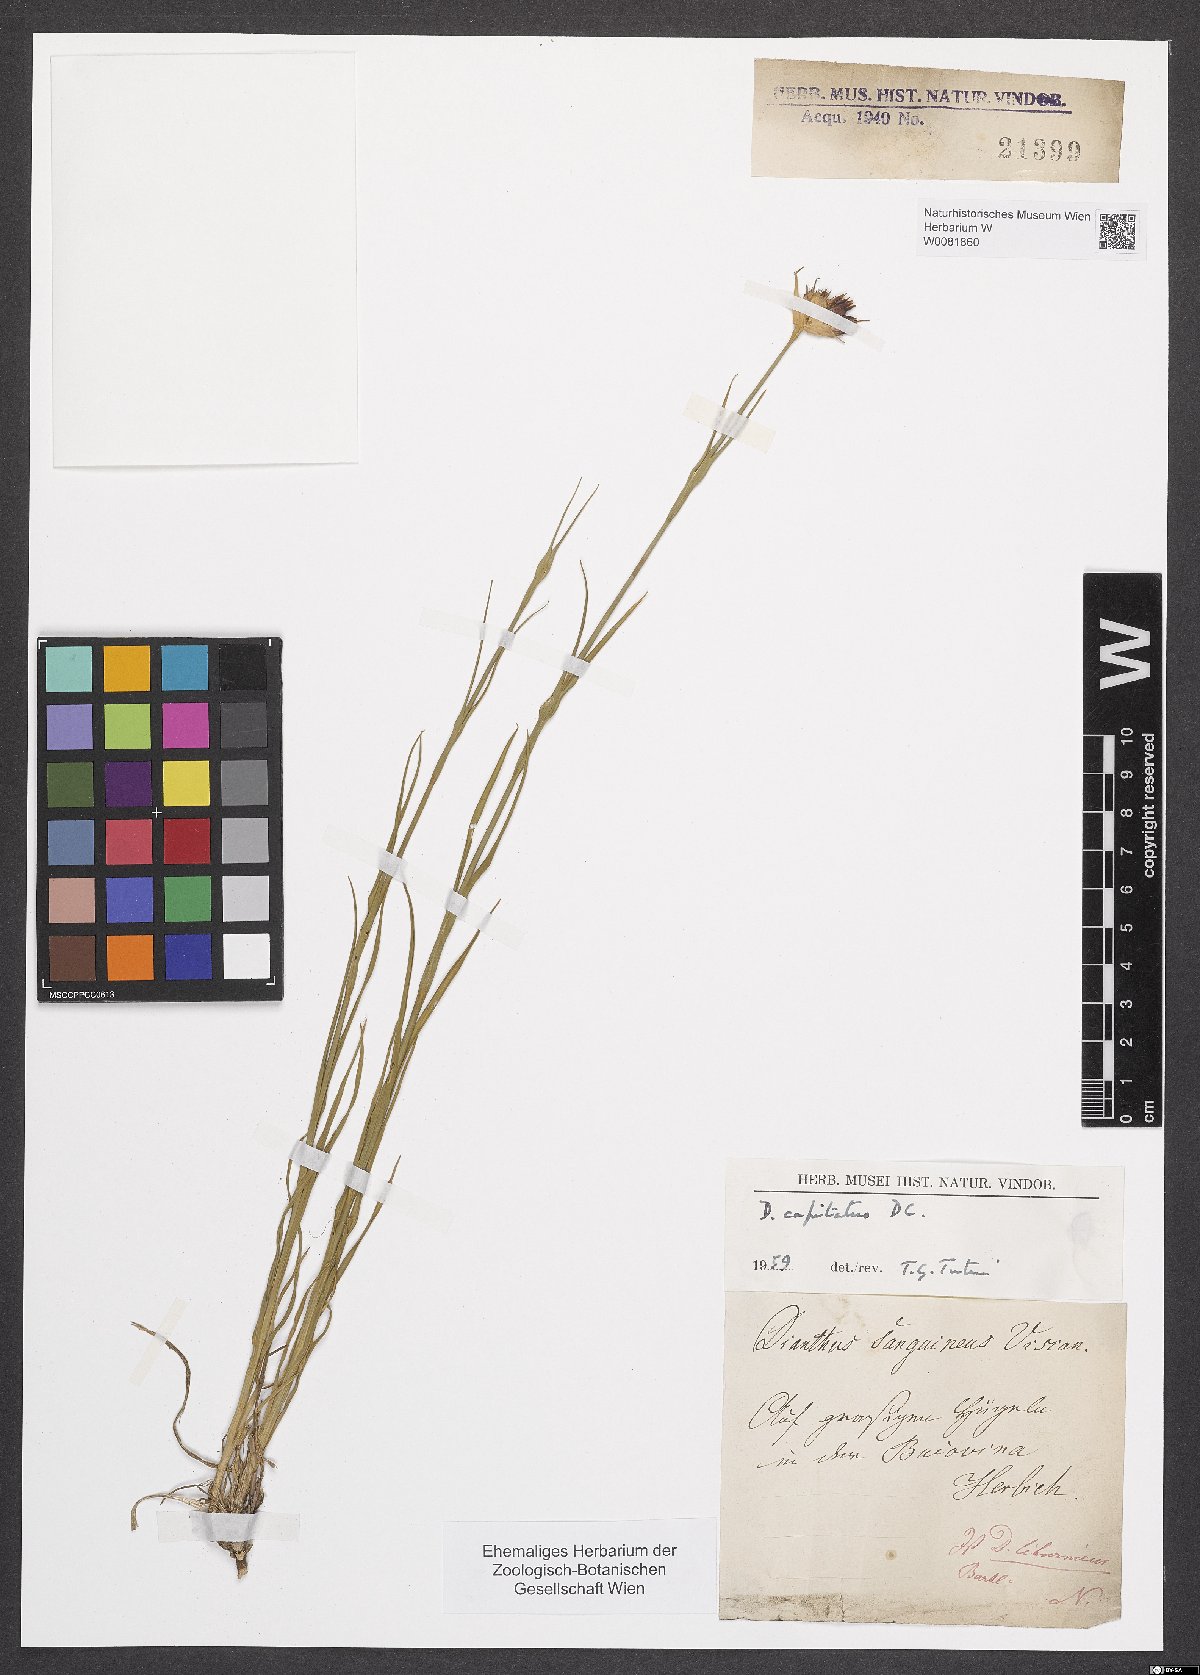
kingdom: Plantae
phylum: Tracheophyta
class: Magnoliopsida
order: Caryophyllales
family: Caryophyllaceae
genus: Dianthus
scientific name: Dianthus capitatus
